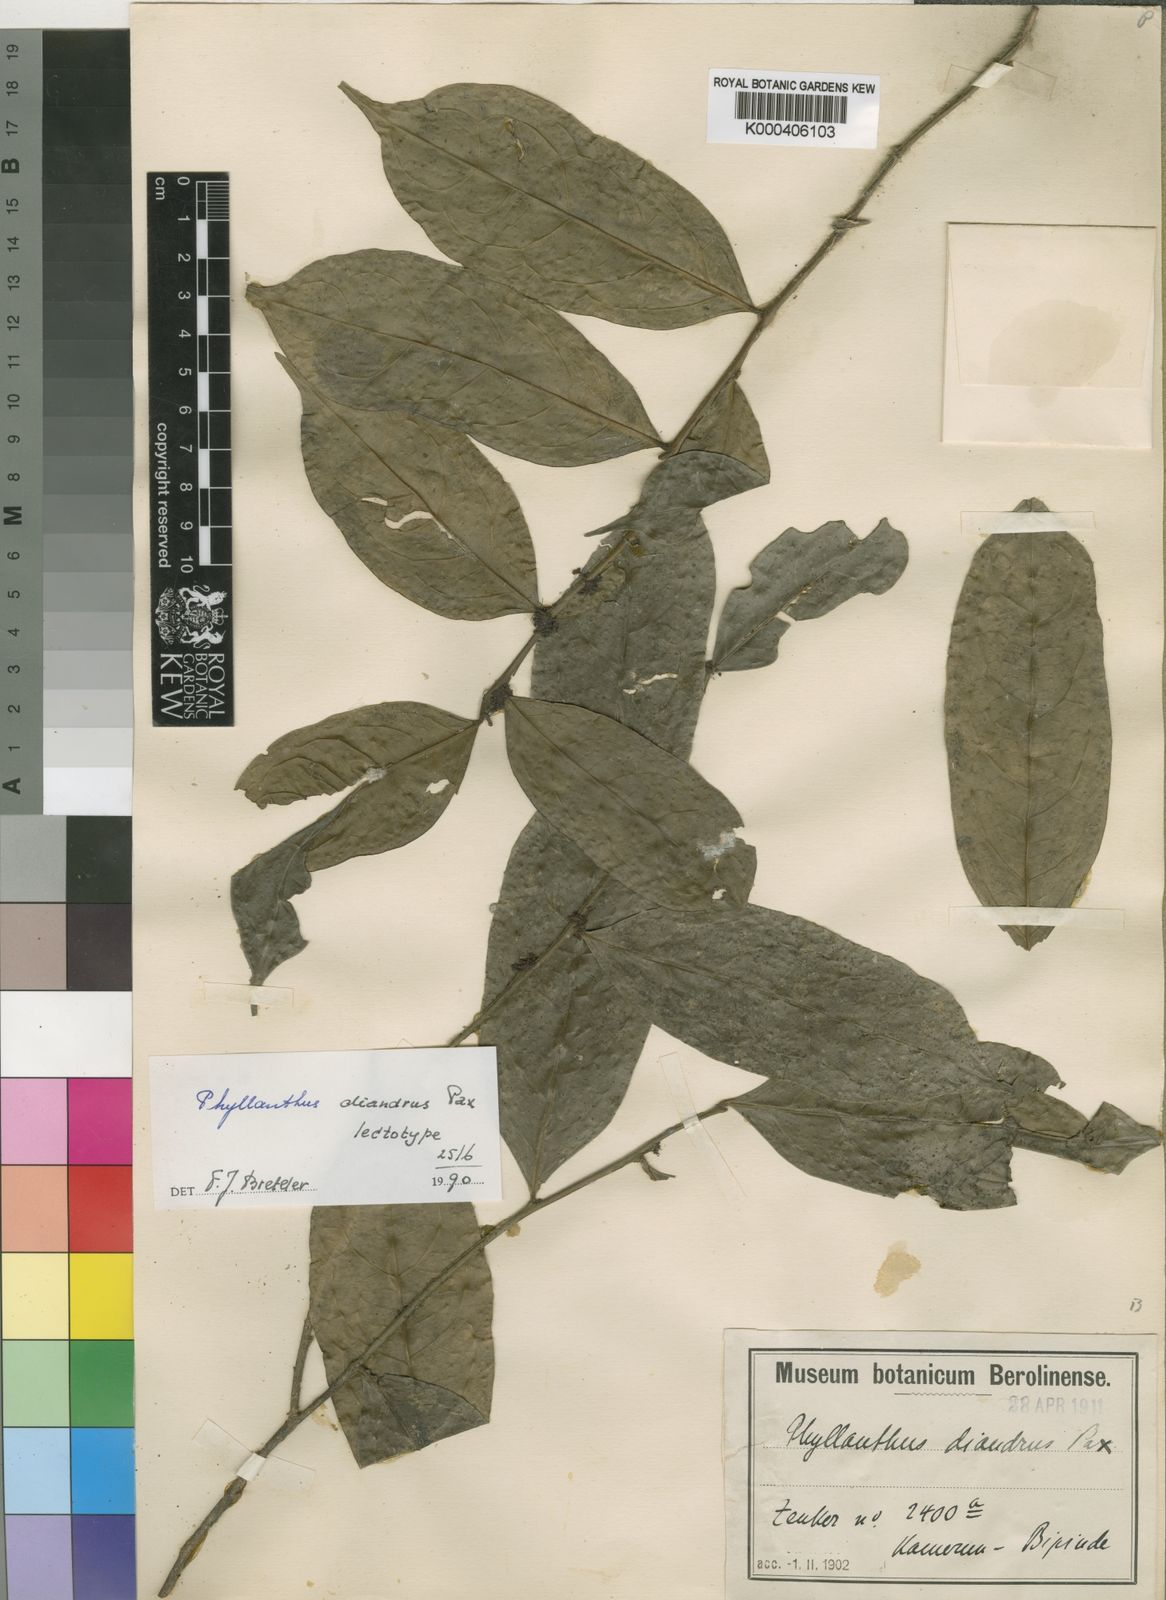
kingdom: Plantae
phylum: Tracheophyta
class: Magnoliopsida
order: Malpighiales
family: Phyllanthaceae
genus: Plagiocladus
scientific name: Plagiocladus diandrus
